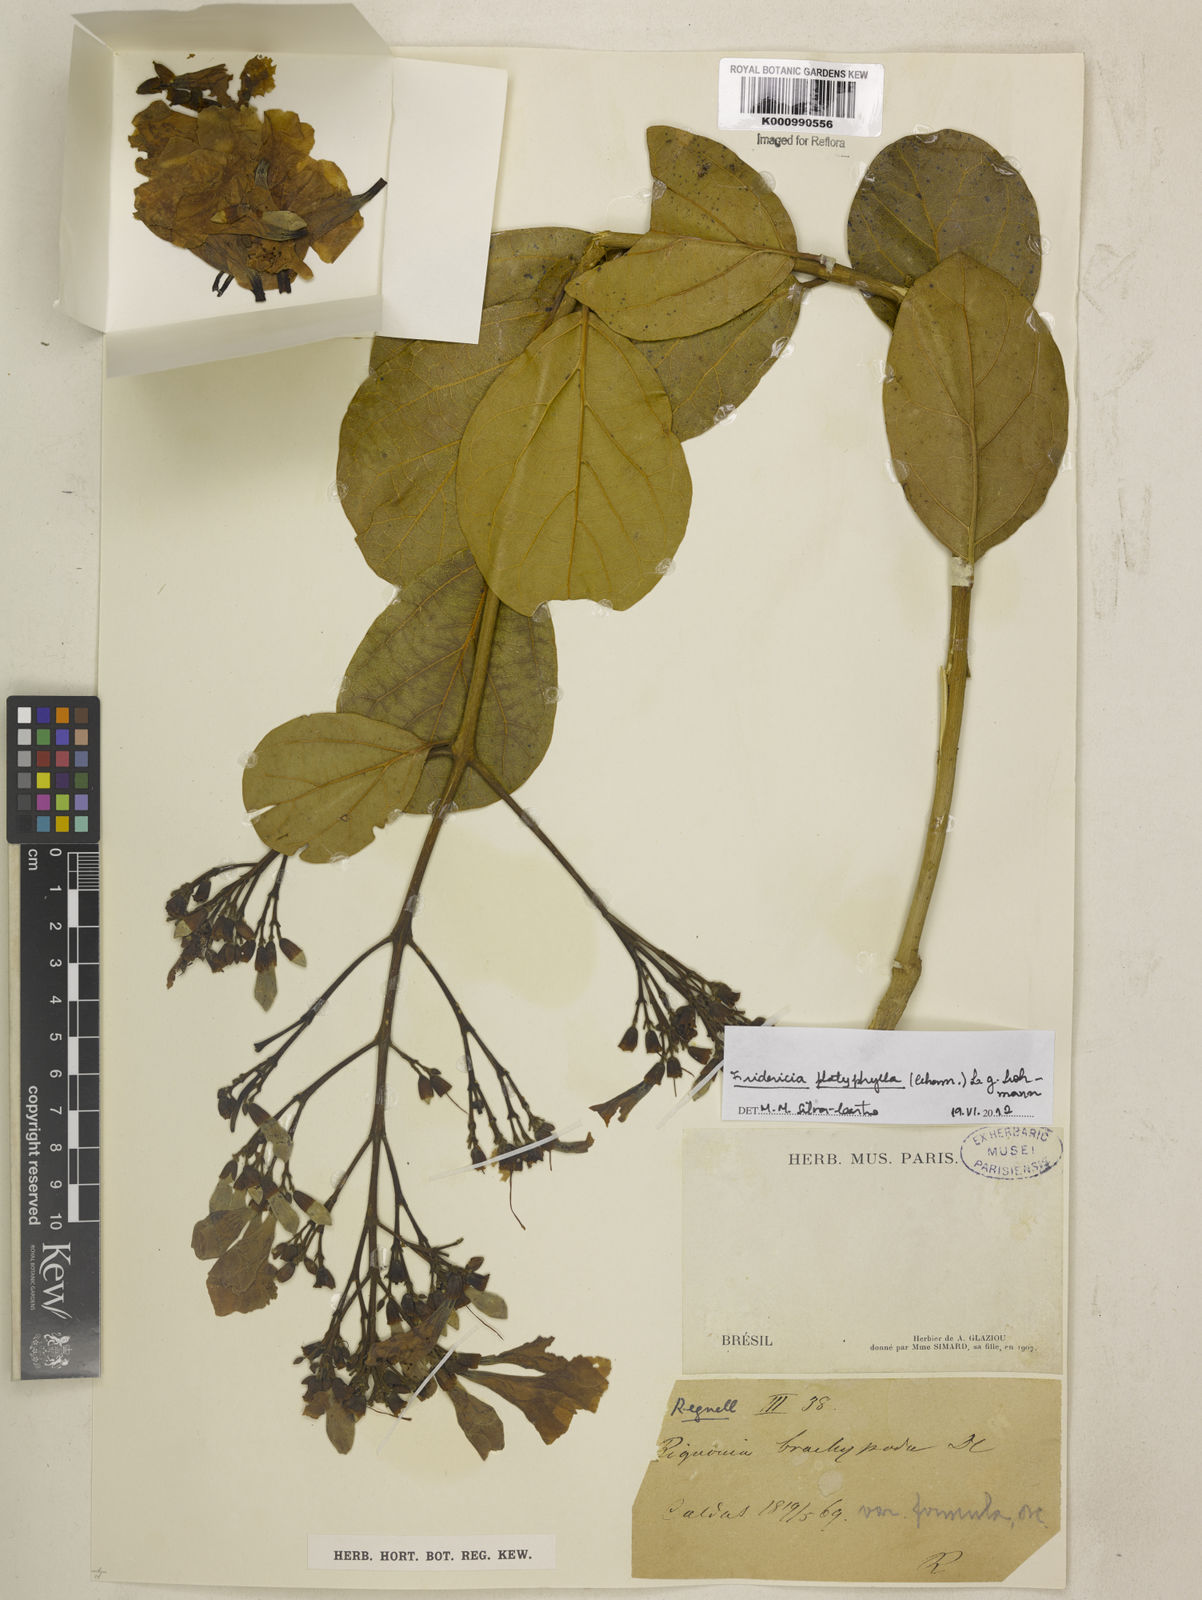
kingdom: Plantae
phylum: Tracheophyta
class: Magnoliopsida
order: Lamiales
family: Bignoniaceae
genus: Fridericia
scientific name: Fridericia platyphylla
